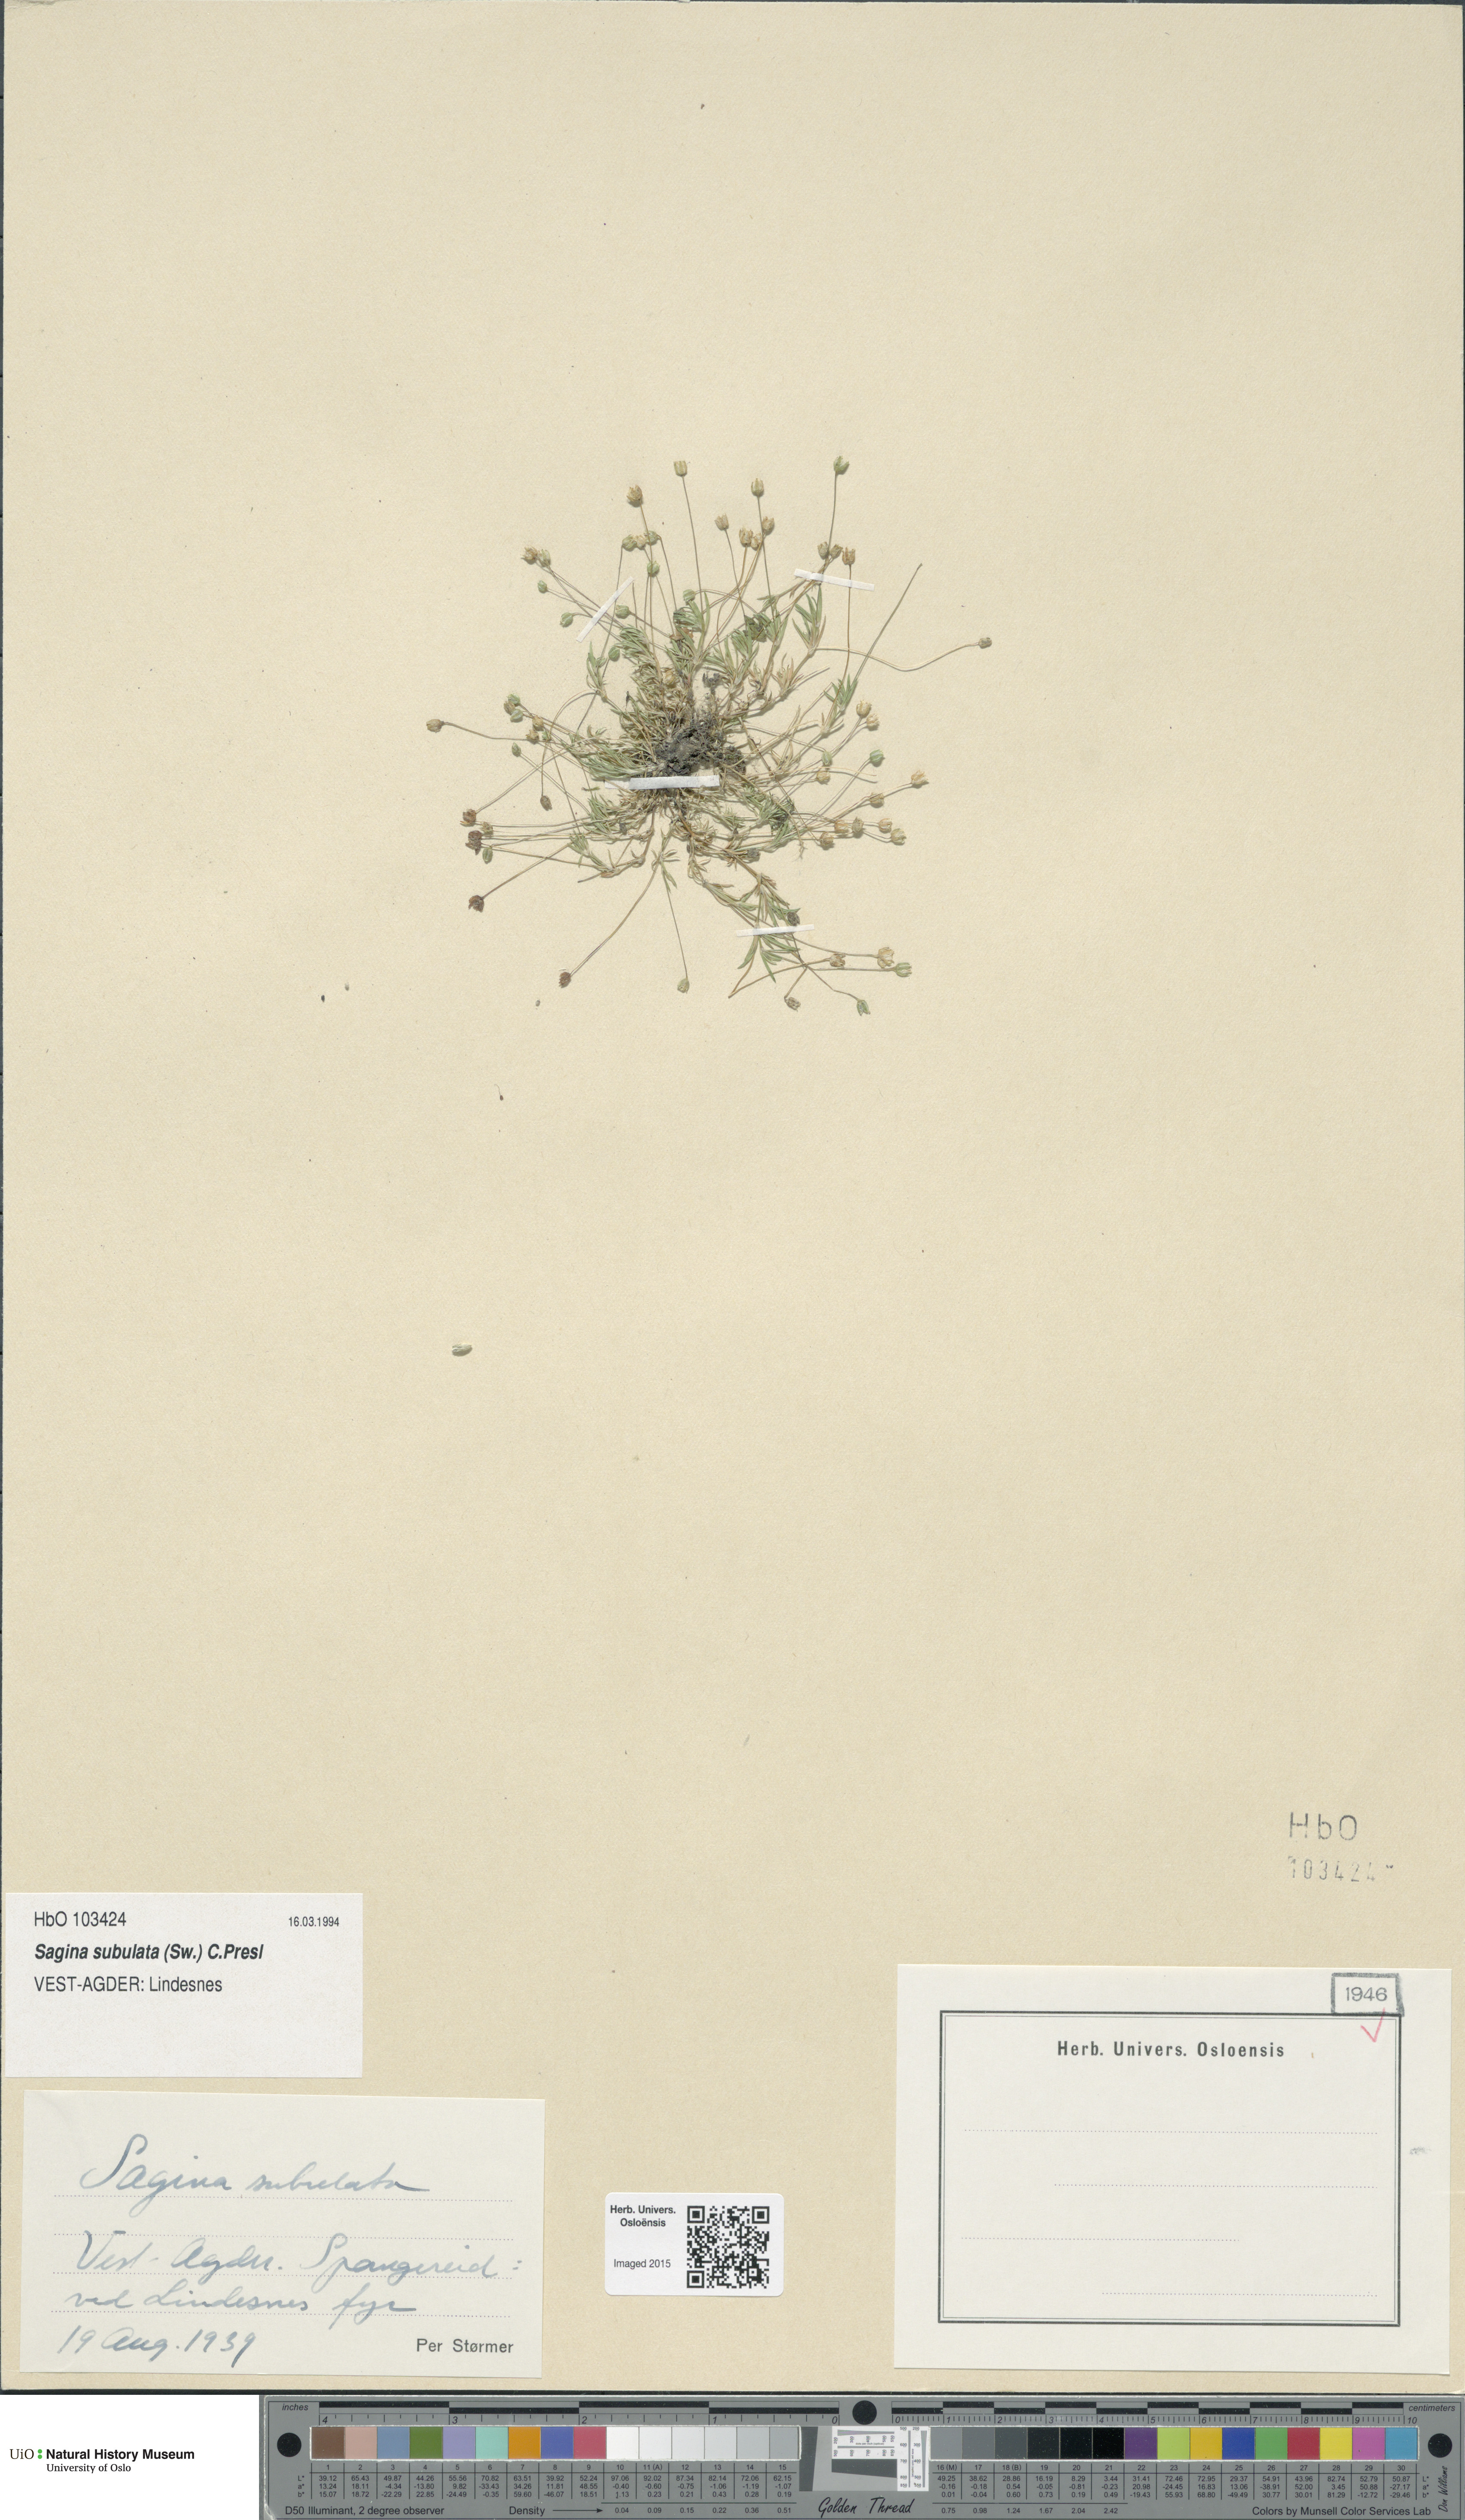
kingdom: Plantae
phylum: Tracheophyta
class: Magnoliopsida
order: Caryophyllales
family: Caryophyllaceae
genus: Sagina
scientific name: Sagina alexandrae
